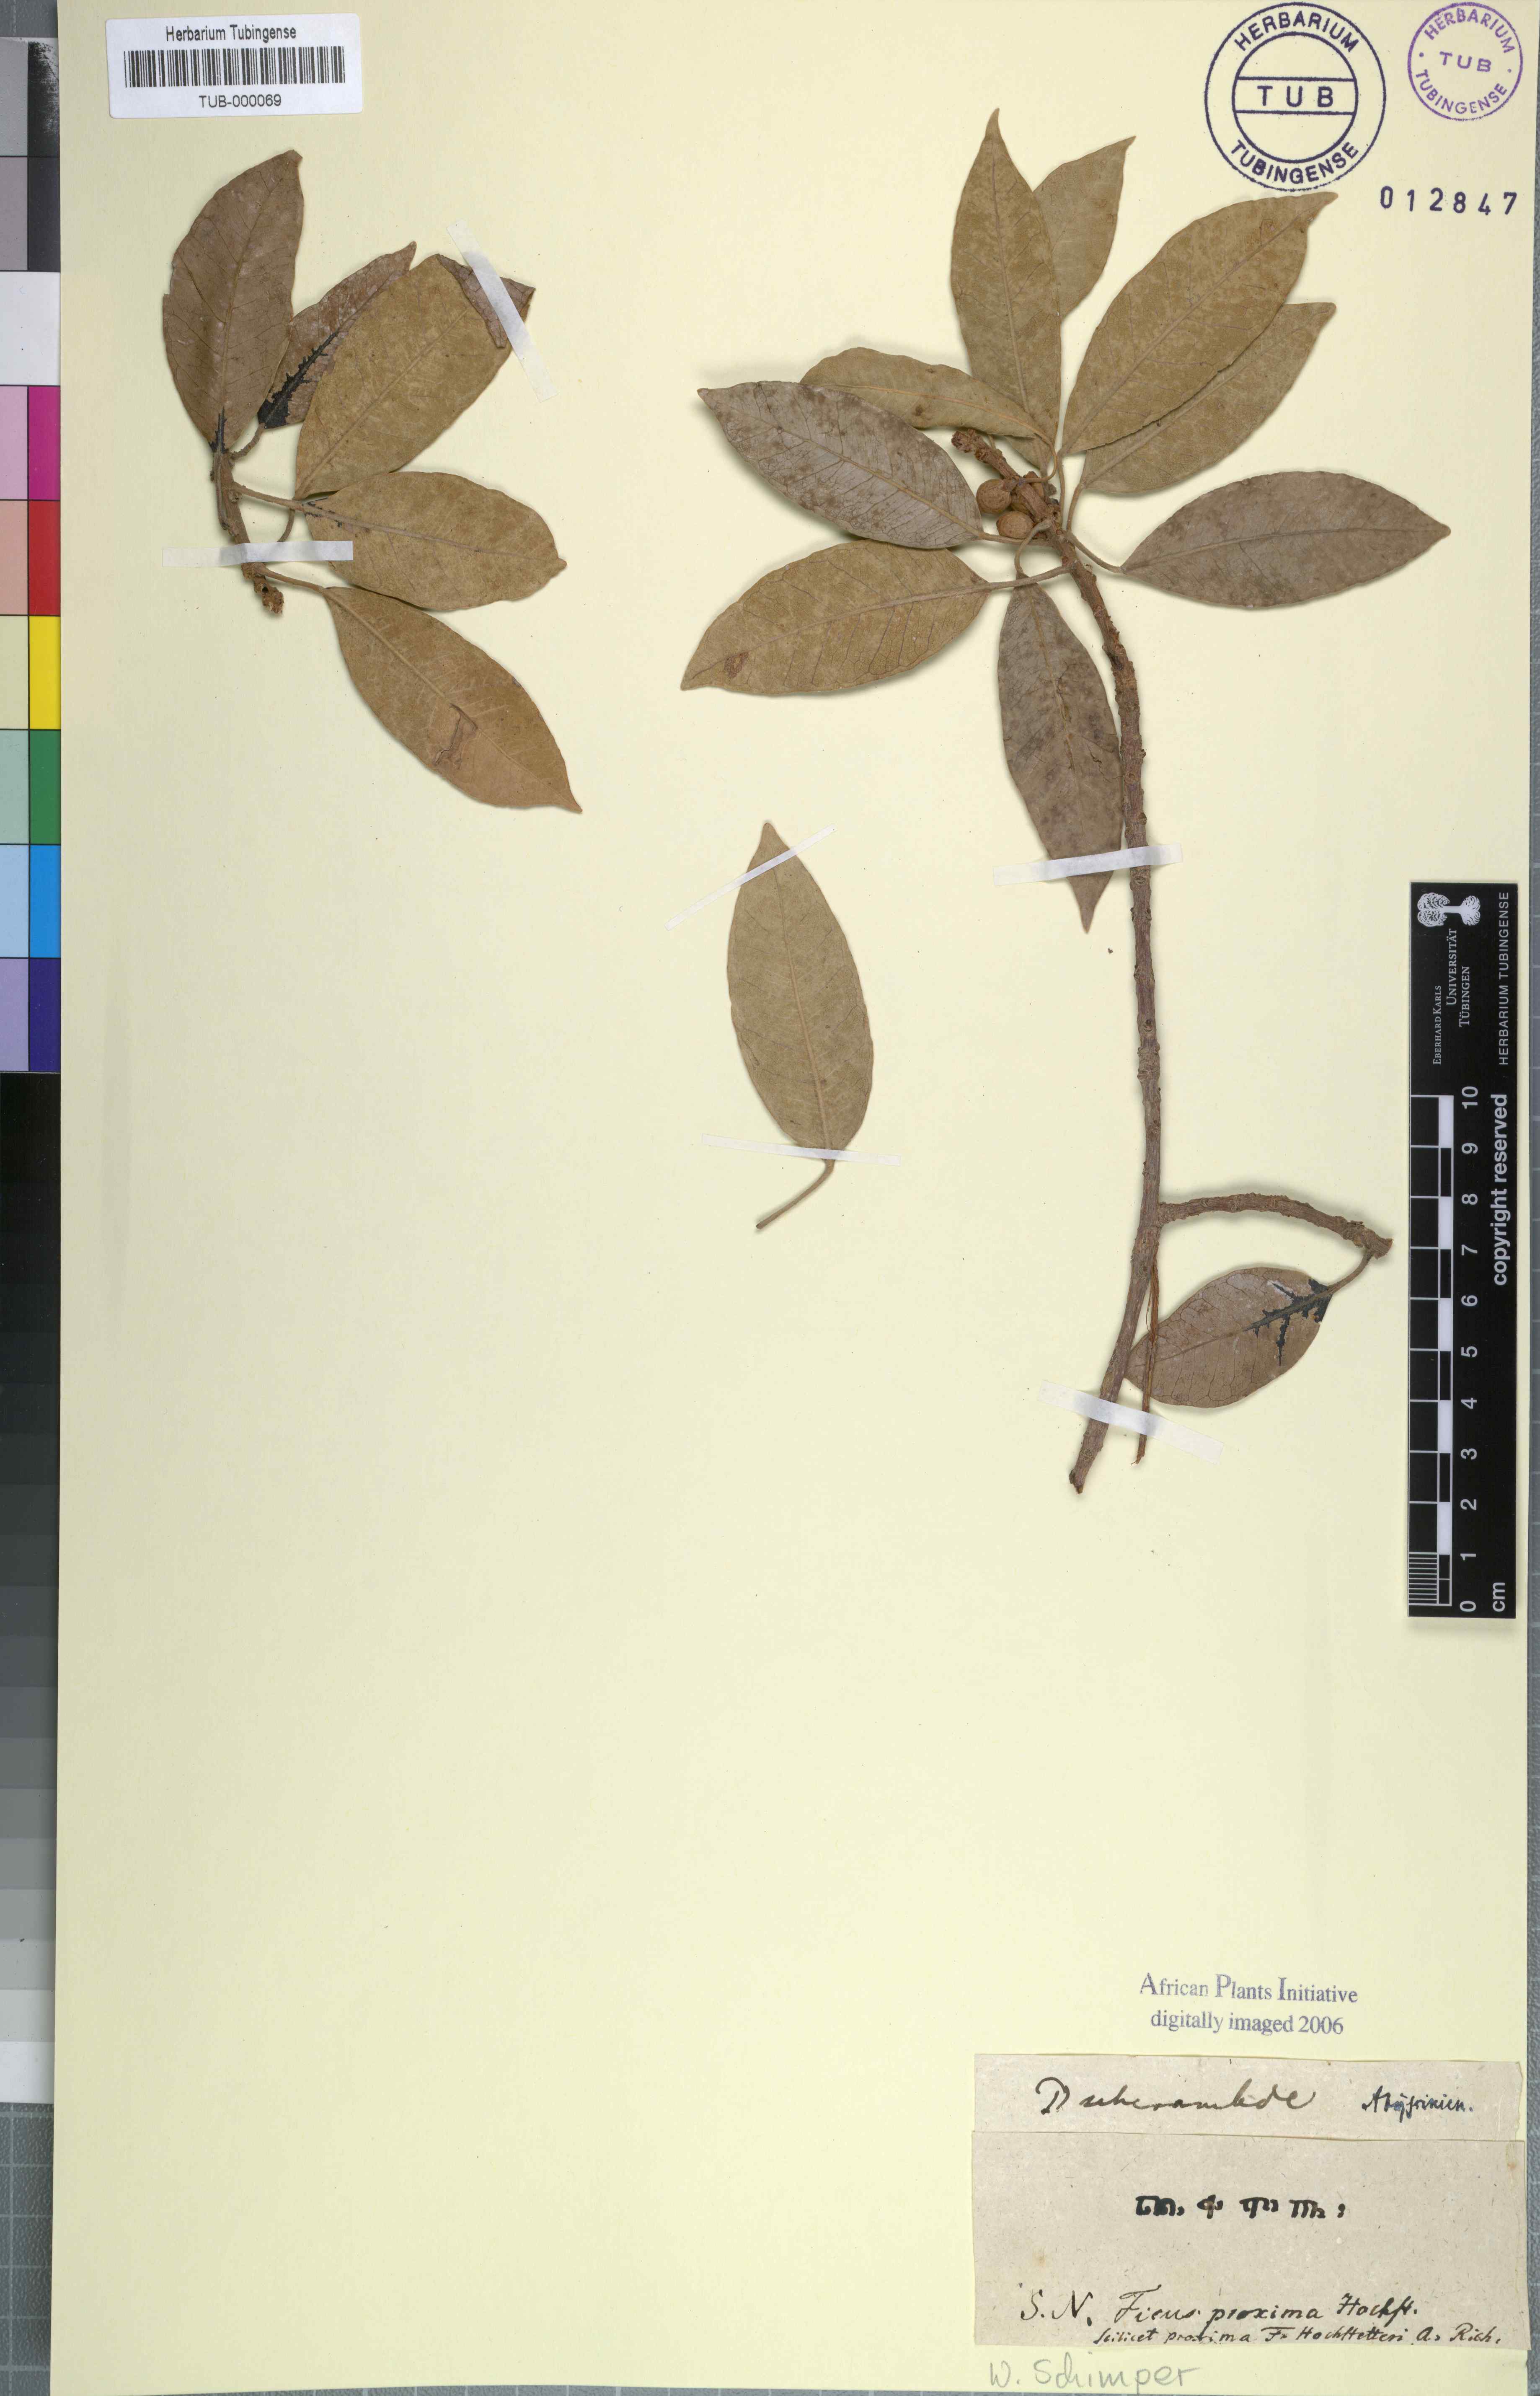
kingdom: Plantae
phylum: Tracheophyta
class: Magnoliopsida
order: Rosales
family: Moraceae
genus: Ficus
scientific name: Ficus
